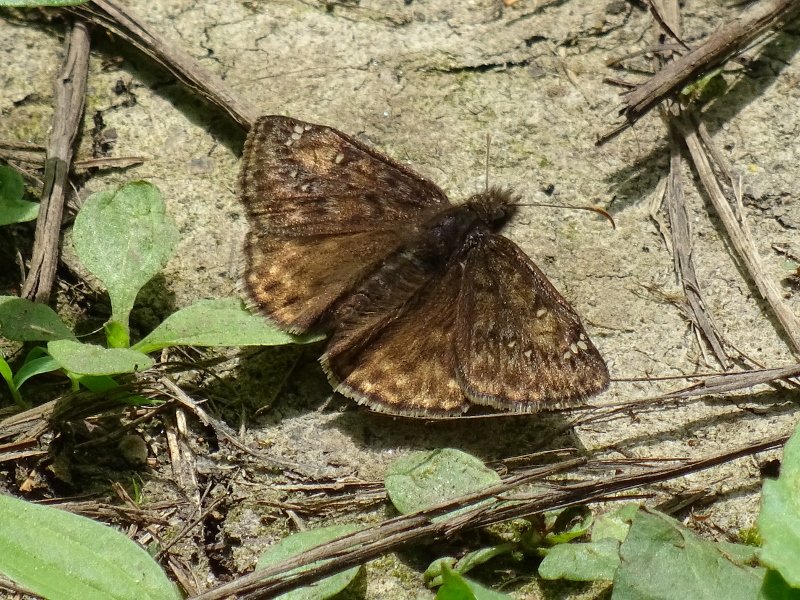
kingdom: Animalia
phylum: Arthropoda
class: Insecta
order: Lepidoptera
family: Hesperiidae
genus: Gesta
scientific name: Gesta
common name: Juvenal's Duskywing
